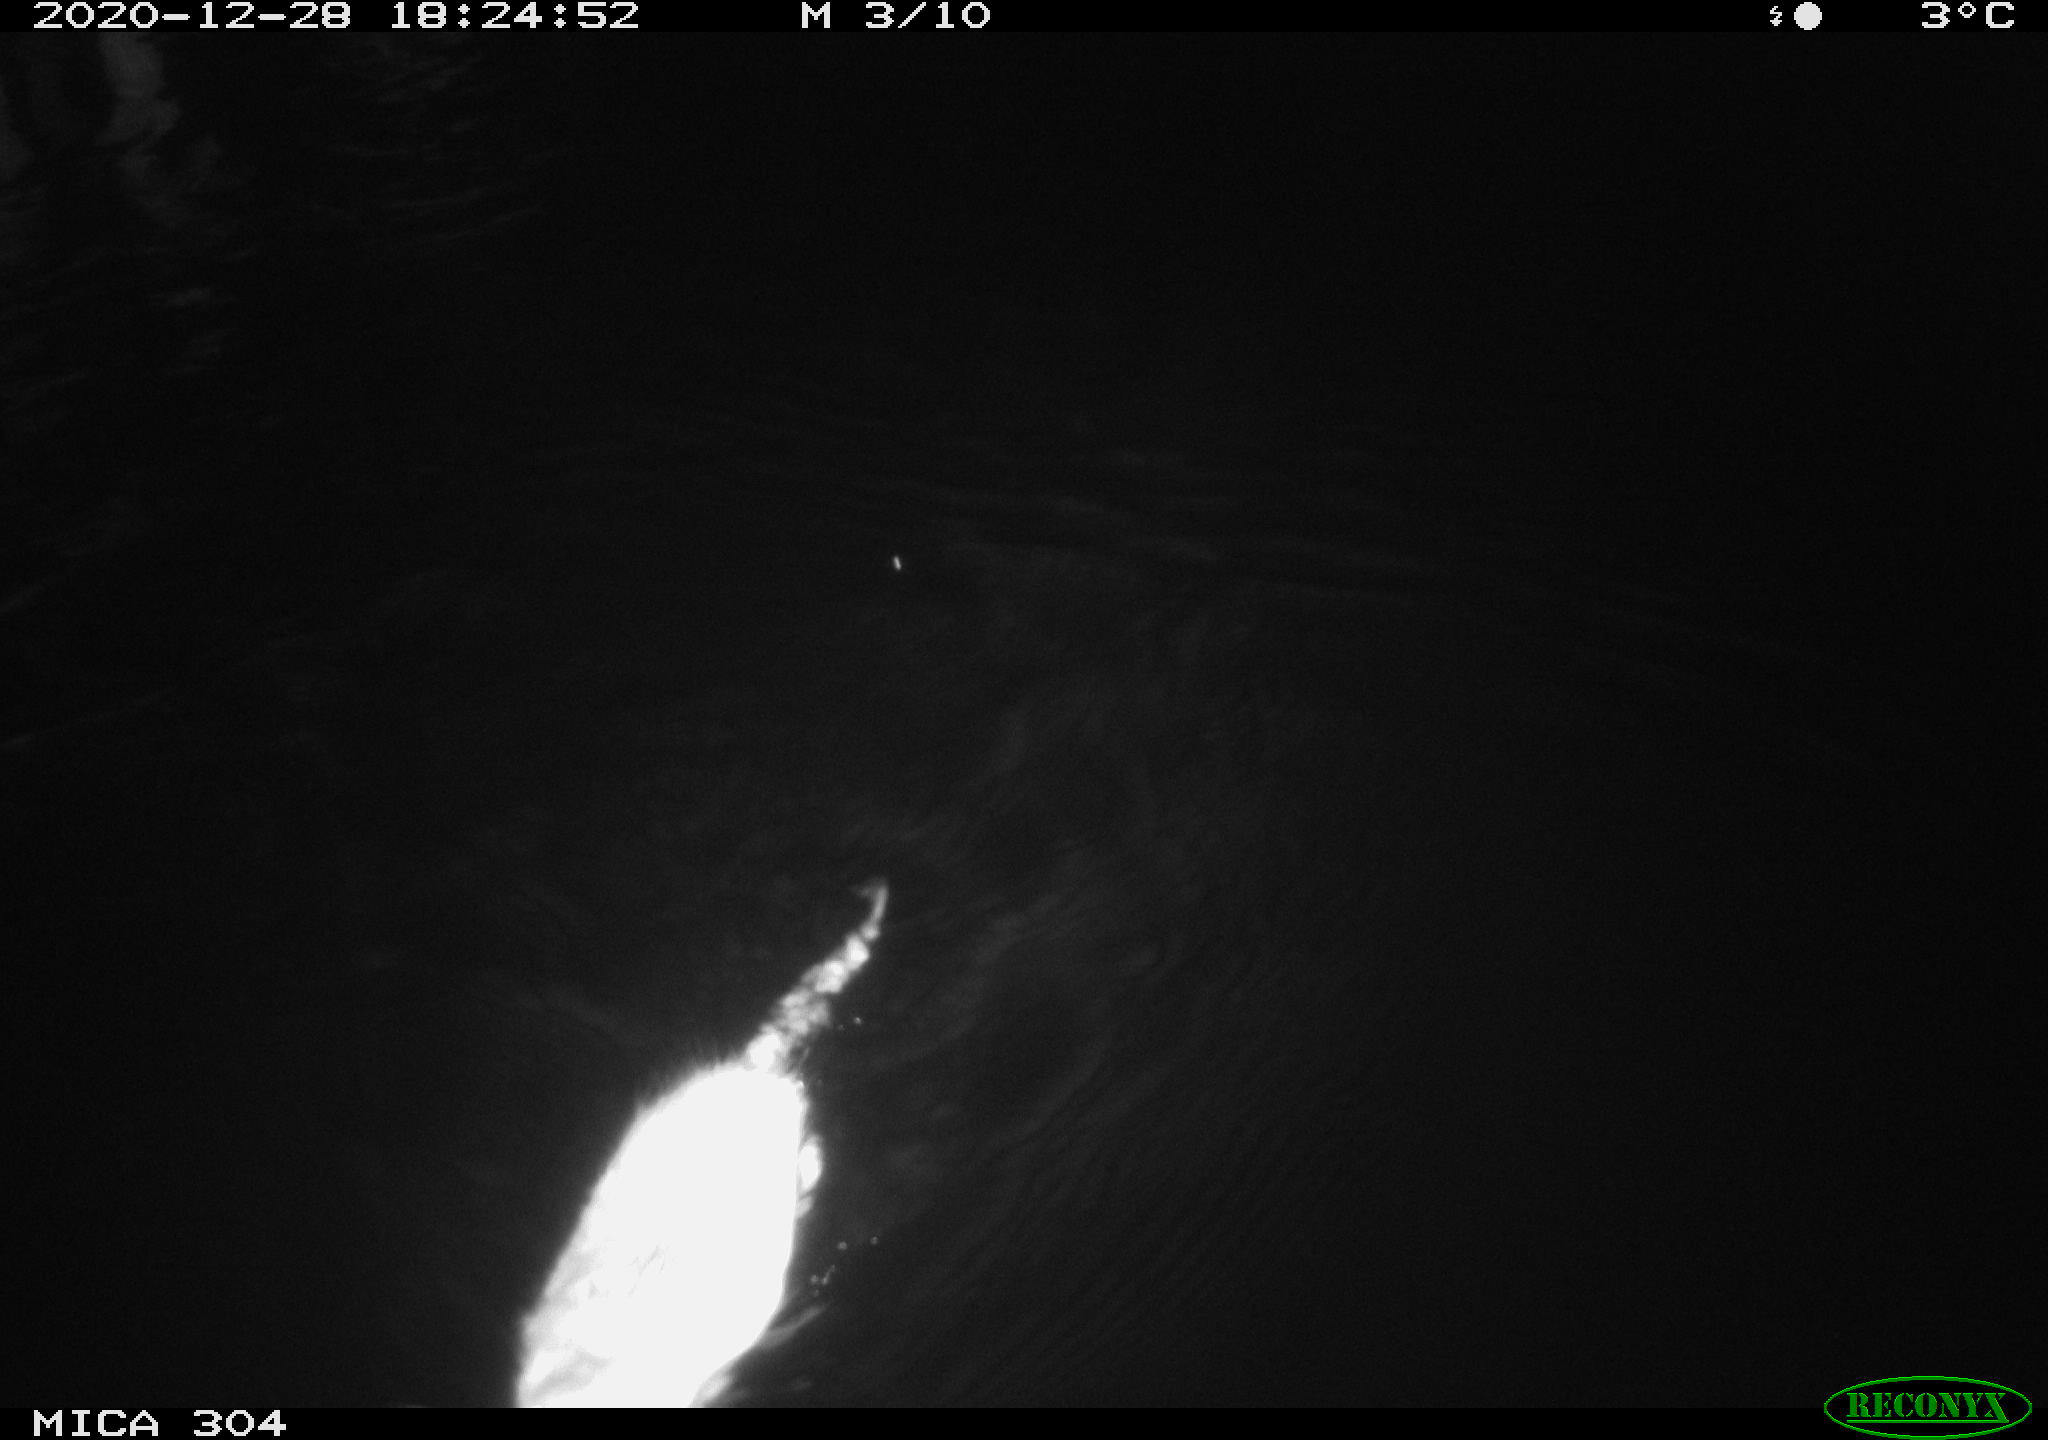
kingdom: Animalia
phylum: Chordata
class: Mammalia
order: Rodentia
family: Cricetidae
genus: Ondatra
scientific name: Ondatra zibethicus
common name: Muskrat
